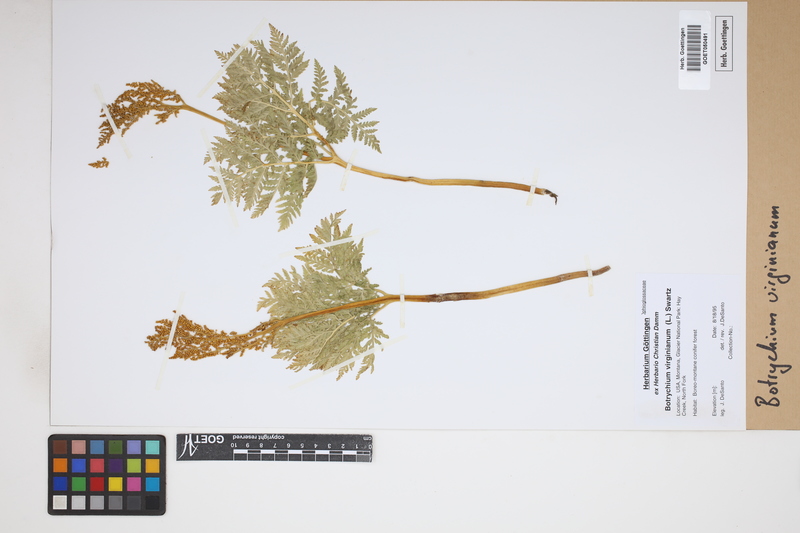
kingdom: Plantae
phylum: Tracheophyta
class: Polypodiopsida
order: Ophioglossales
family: Ophioglossaceae
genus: Botrychium
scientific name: Botrychium virginianum
